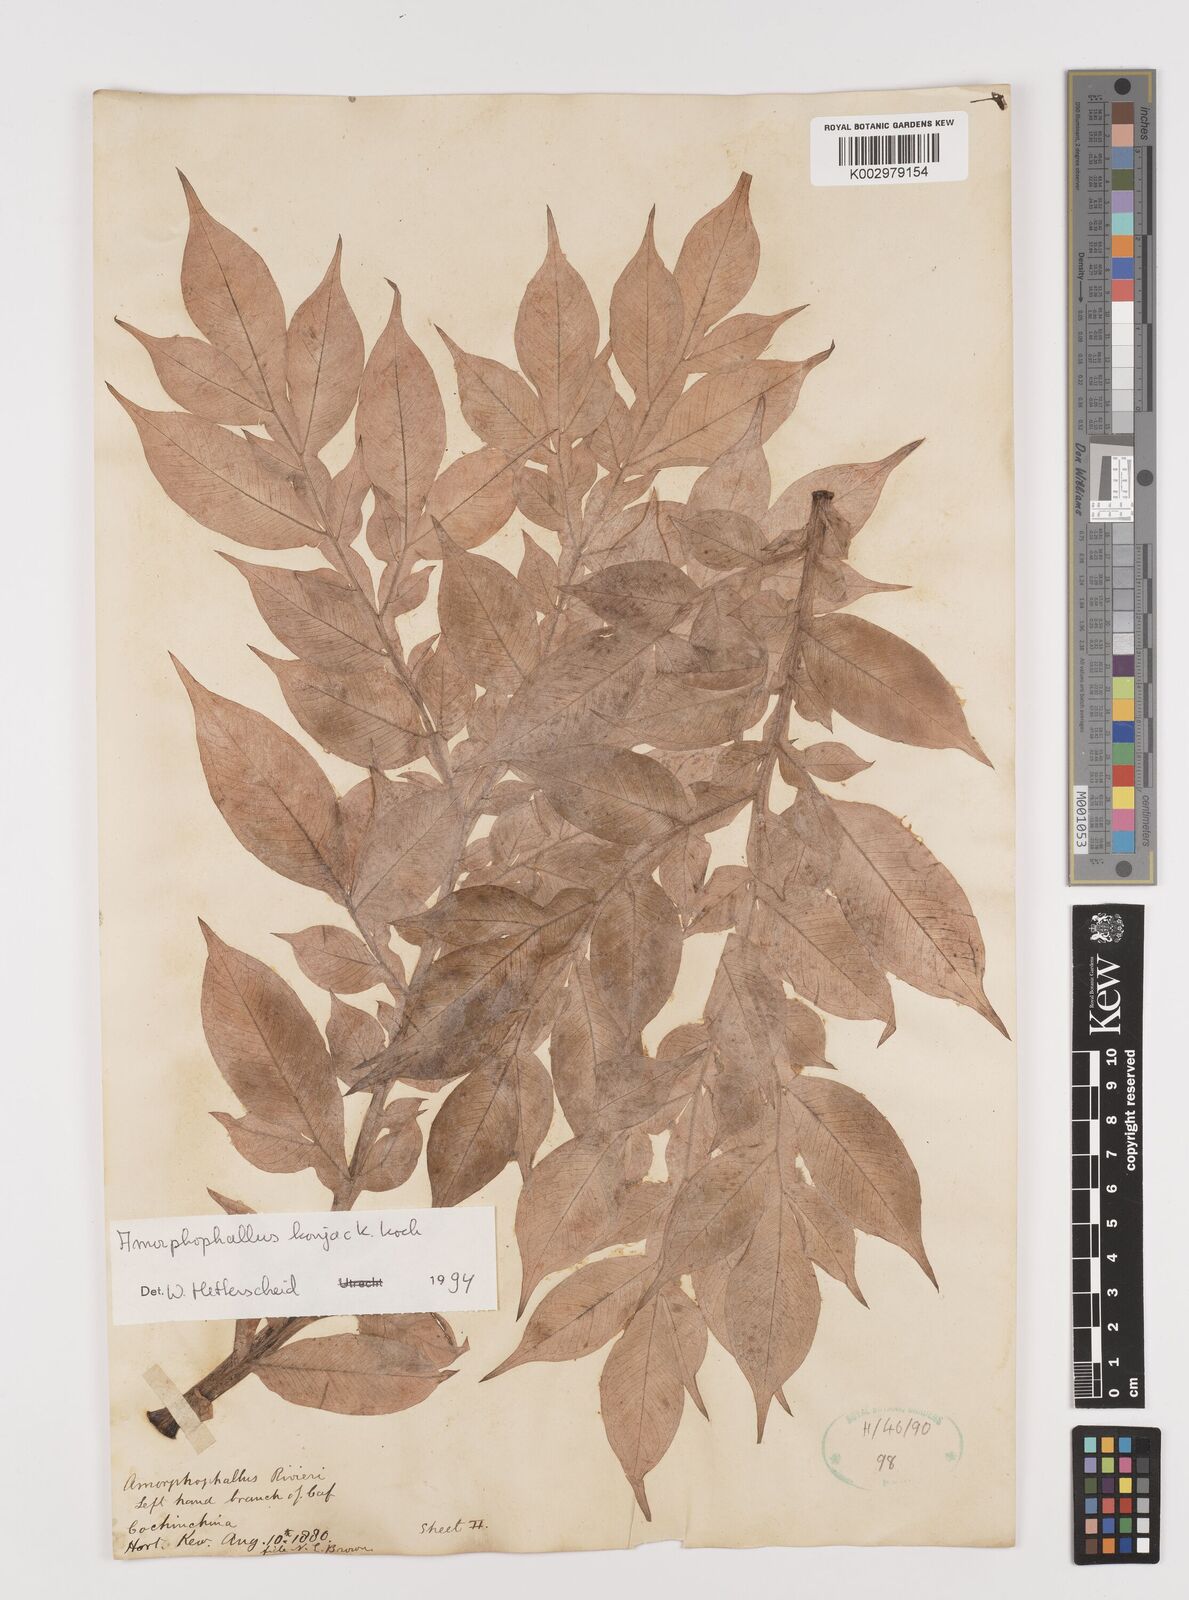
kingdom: Plantae
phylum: Tracheophyta
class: Liliopsida
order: Alismatales
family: Araceae
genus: Amorphophallus
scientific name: Amorphophallus konjac
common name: Umbrella arum
